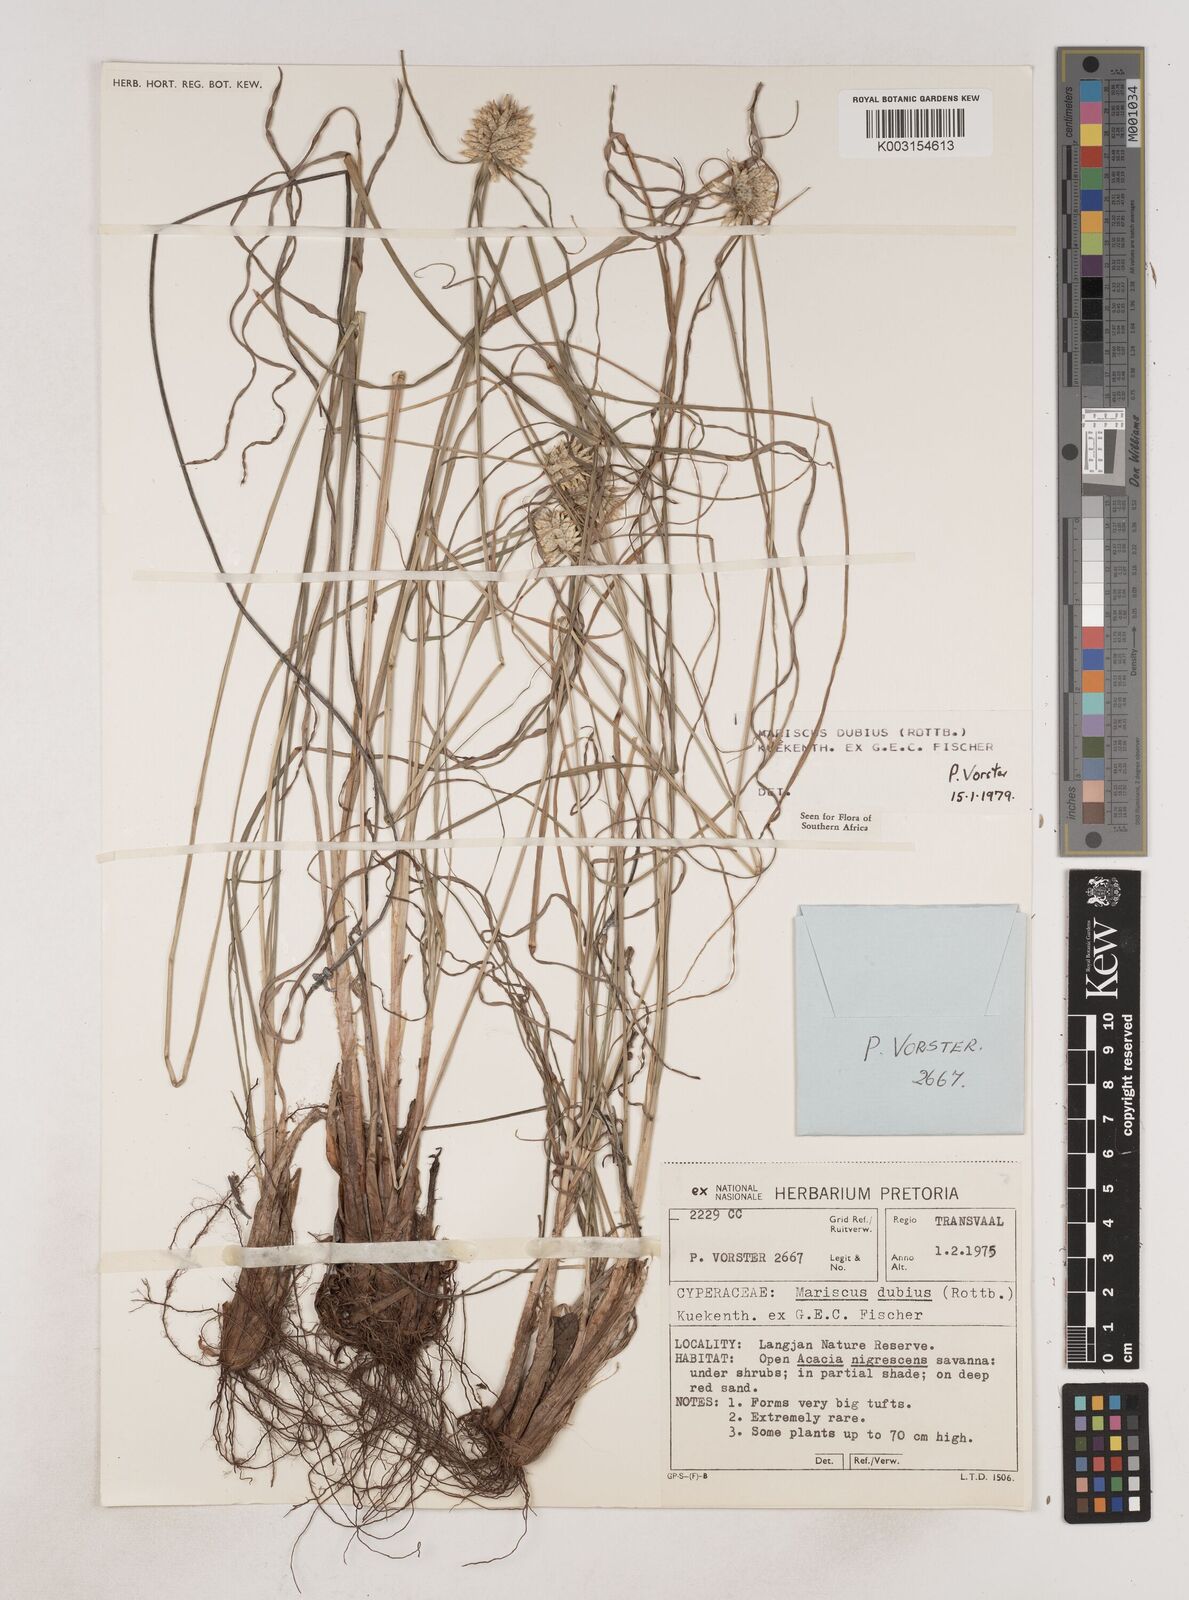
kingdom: Plantae
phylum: Tracheophyta
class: Liliopsida
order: Poales
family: Cyperaceae
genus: Cyperus
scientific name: Cyperus dubius
